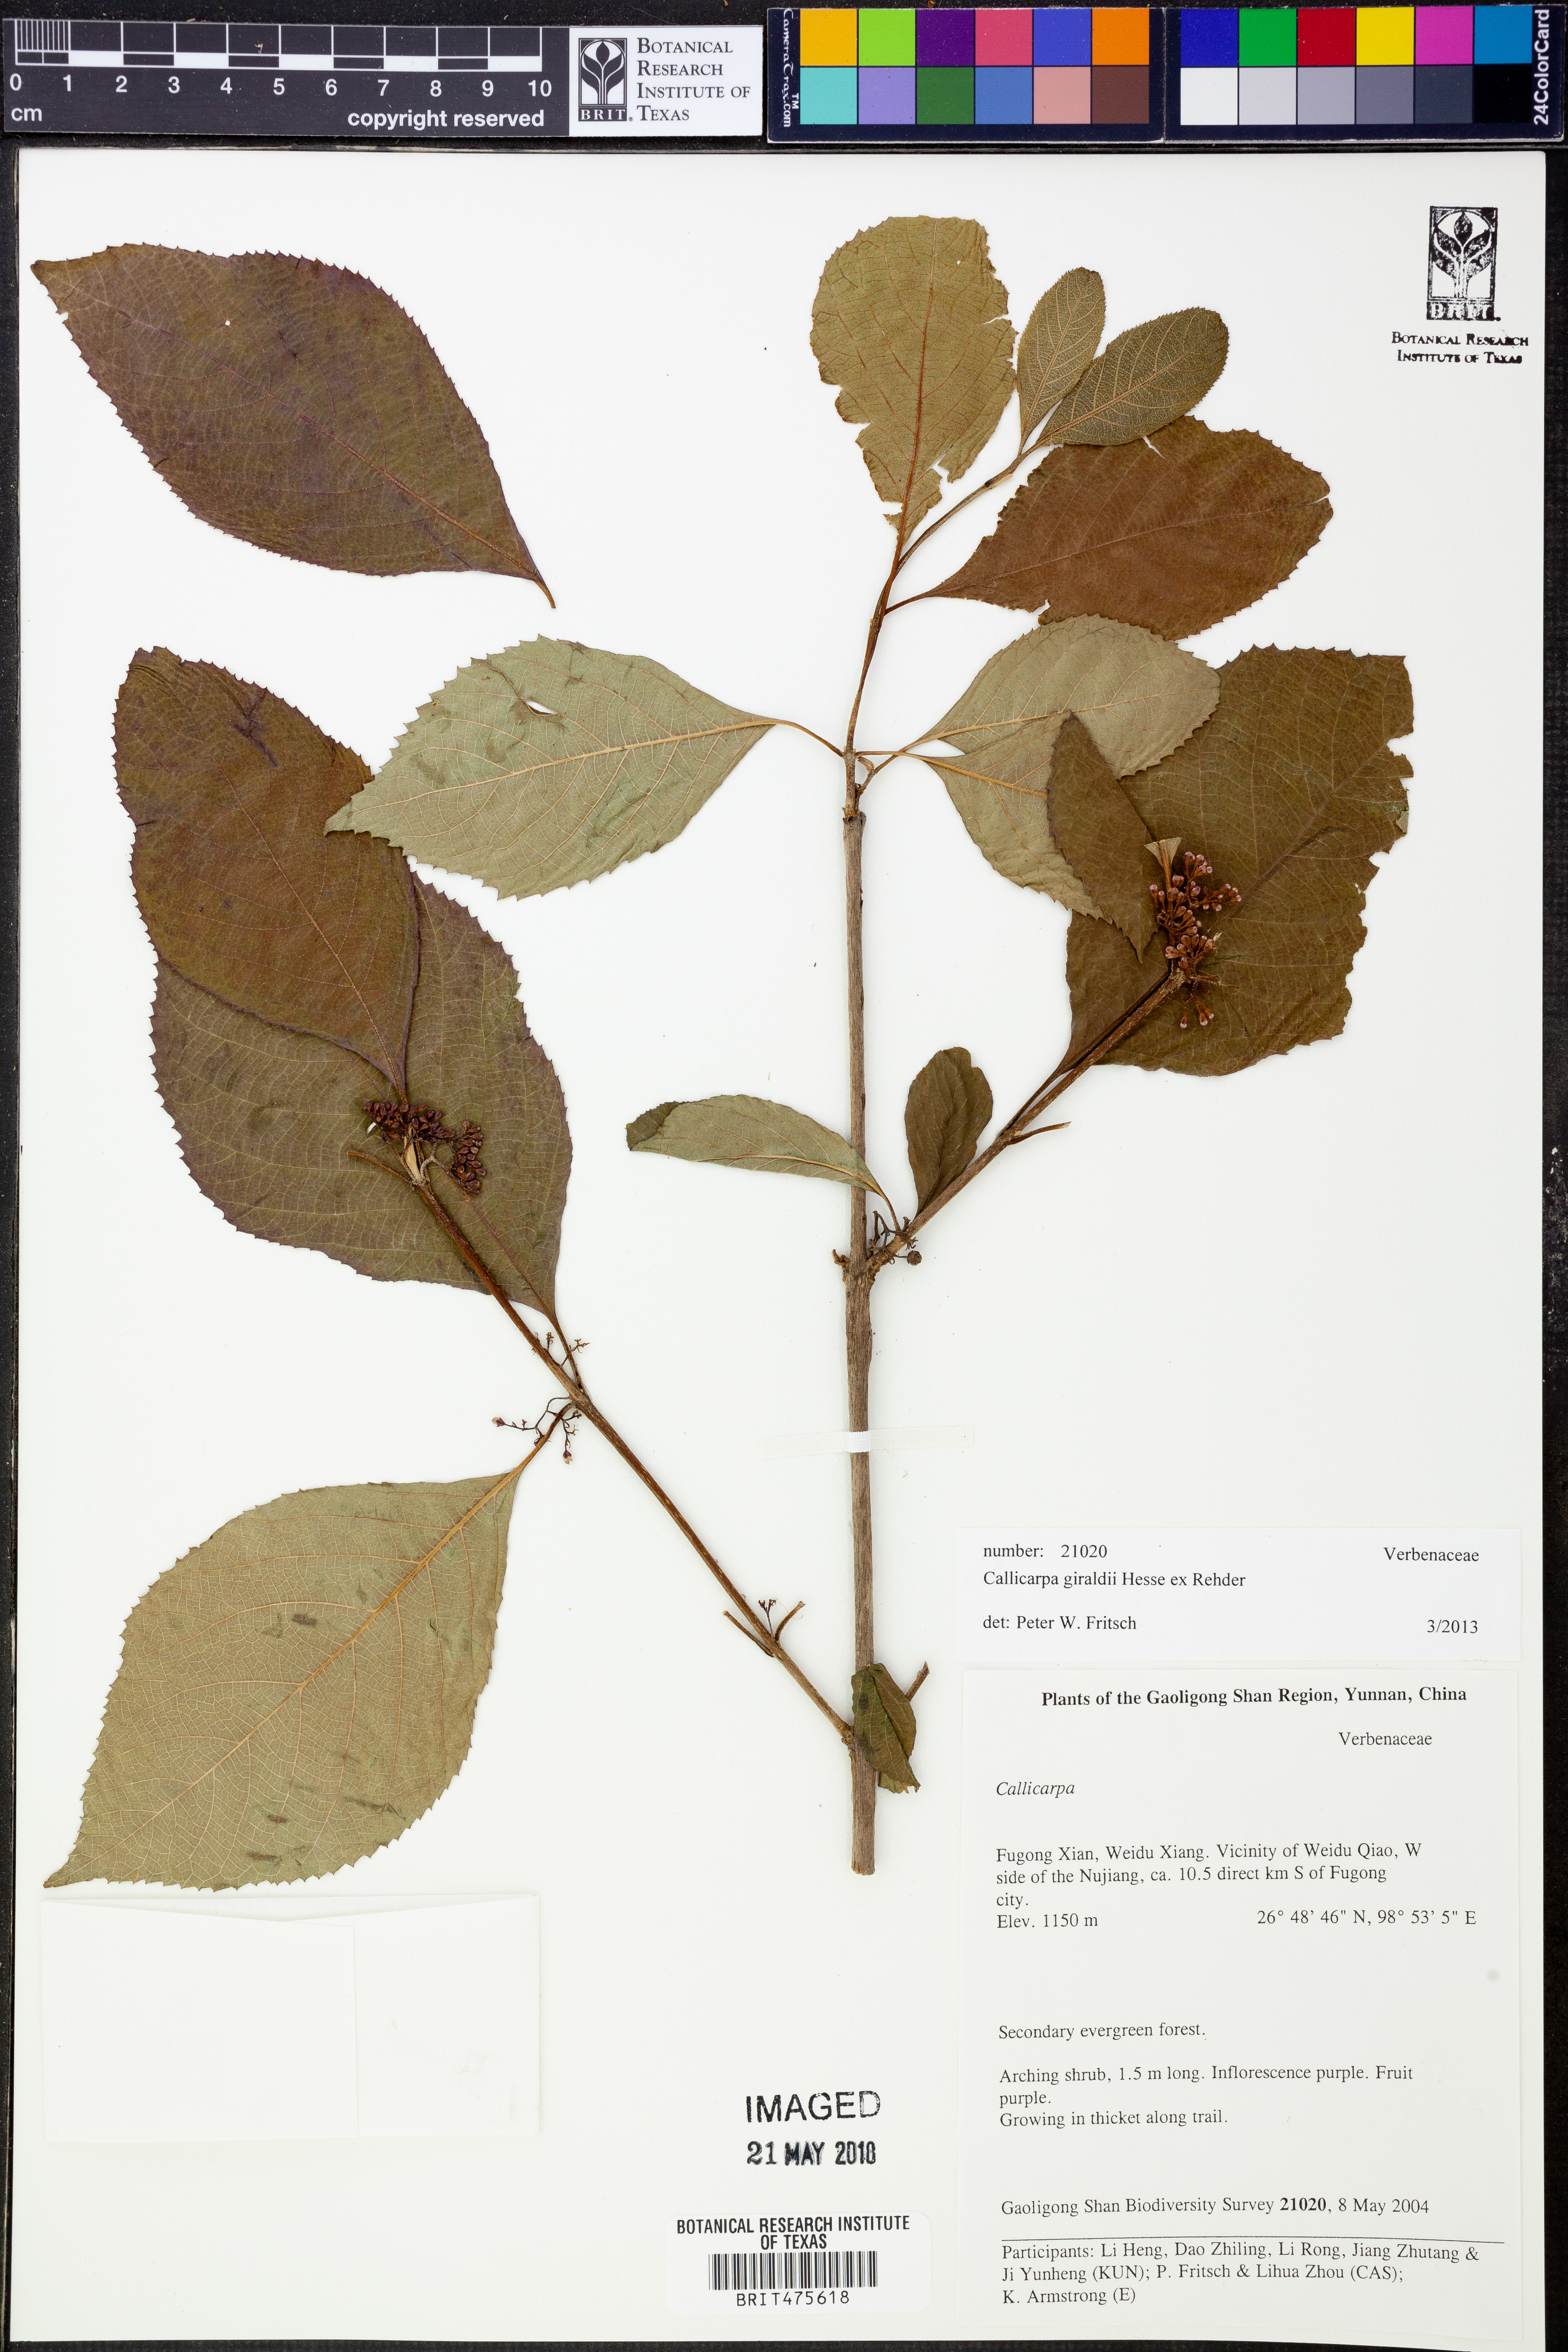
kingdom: Plantae
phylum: Tracheophyta
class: Magnoliopsida
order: Lamiales
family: Lamiaceae
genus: Callicarpa
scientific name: Callicarpa giraldii
